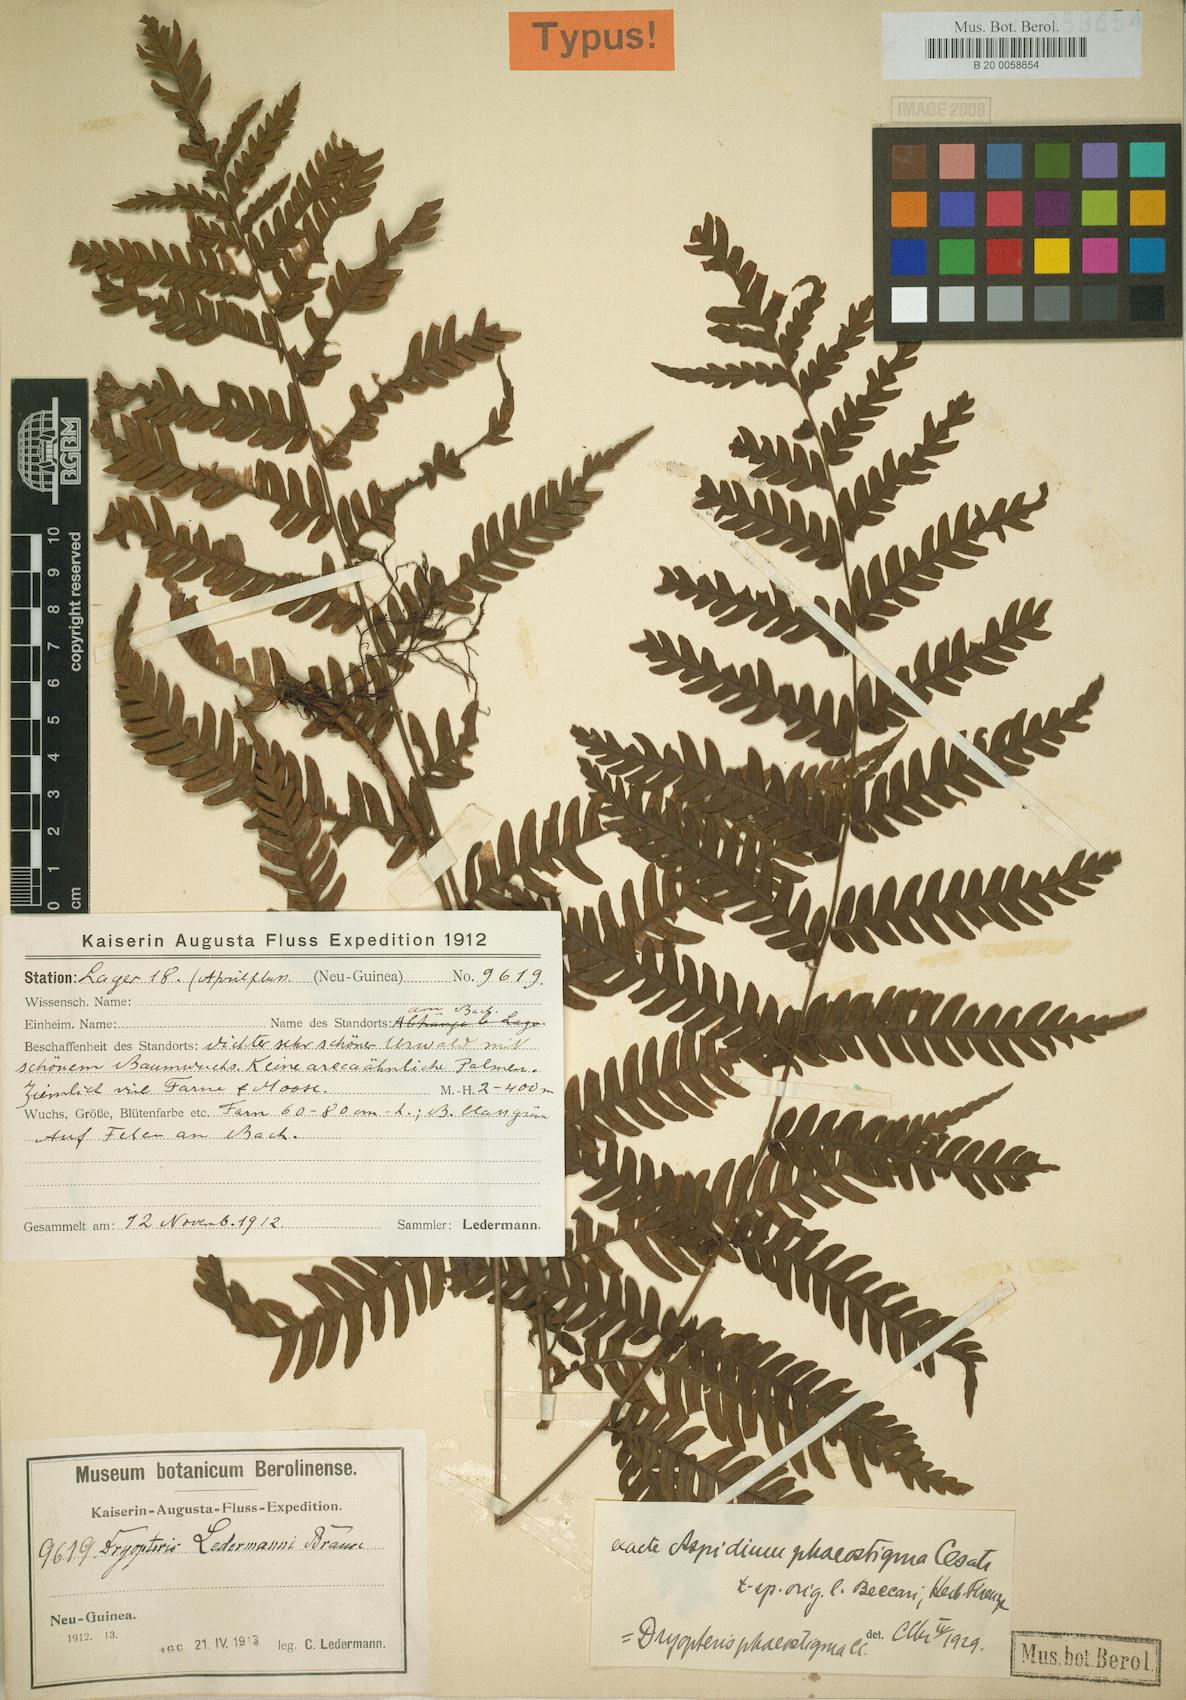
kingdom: Plantae
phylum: Tracheophyta
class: Polypodiopsida
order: Polypodiales
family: Lomariopsidaceae
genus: Dryopolystichum
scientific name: Dryopolystichum phaeostigma
